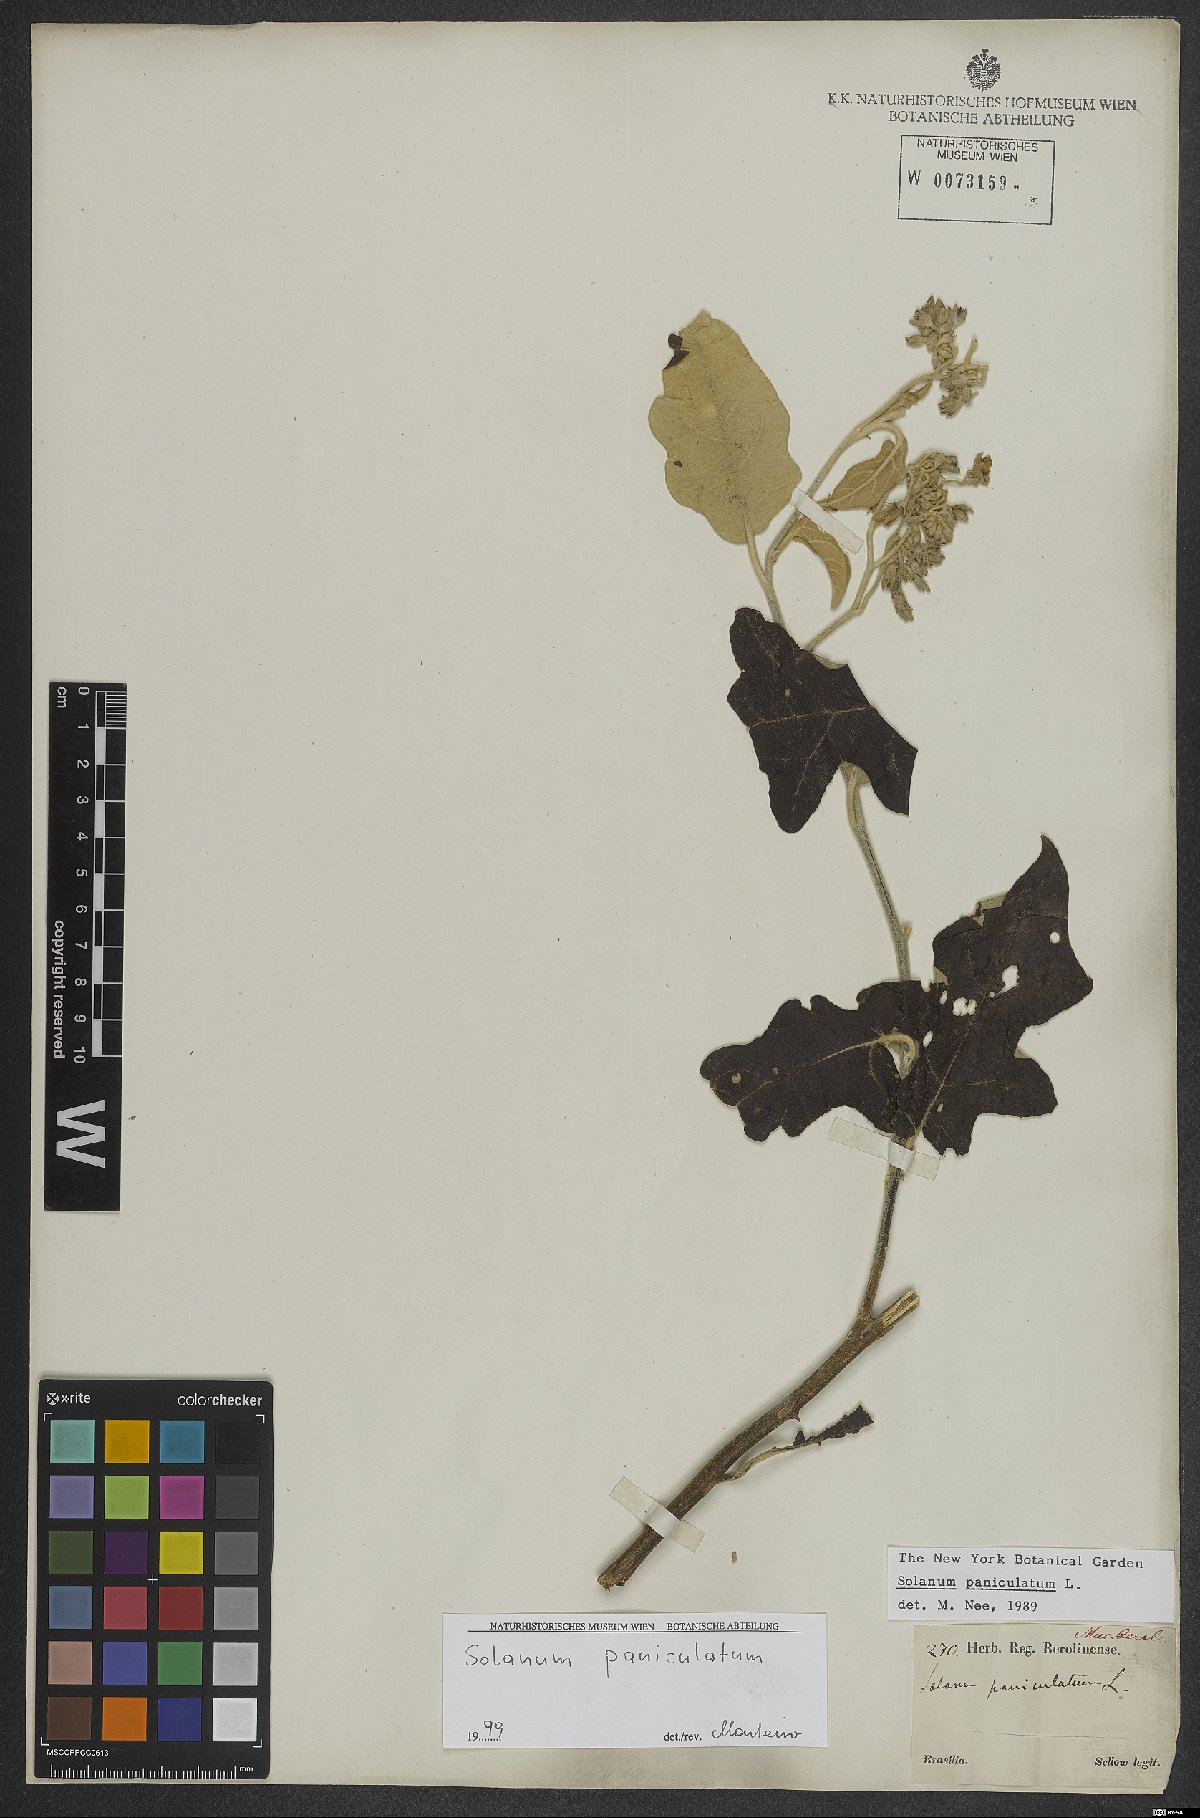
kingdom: Plantae
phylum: Tracheophyta
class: Magnoliopsida
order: Solanales
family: Solanaceae
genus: Solanum
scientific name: Solanum paniculatum
